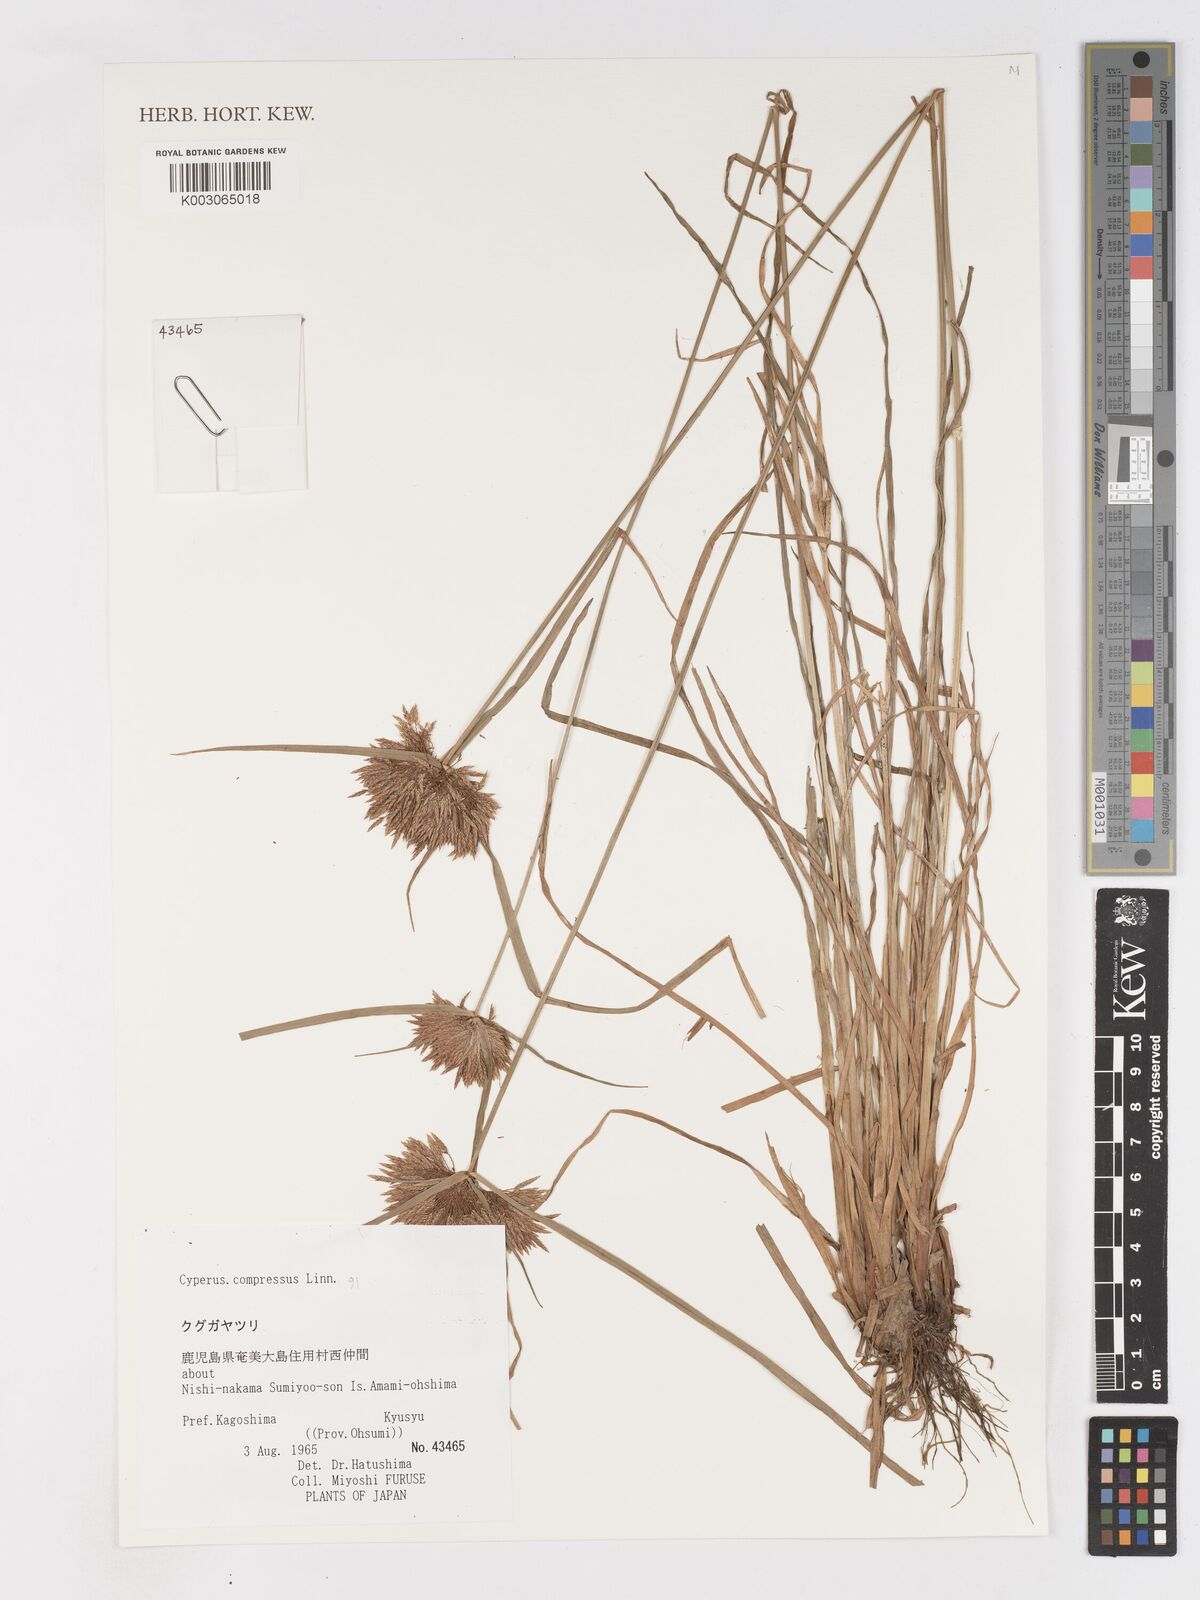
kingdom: Plantae
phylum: Tracheophyta
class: Liliopsida
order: Poales
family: Cyperaceae
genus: Cyperus
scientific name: Cyperus compressus
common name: Poorland flatsedge
